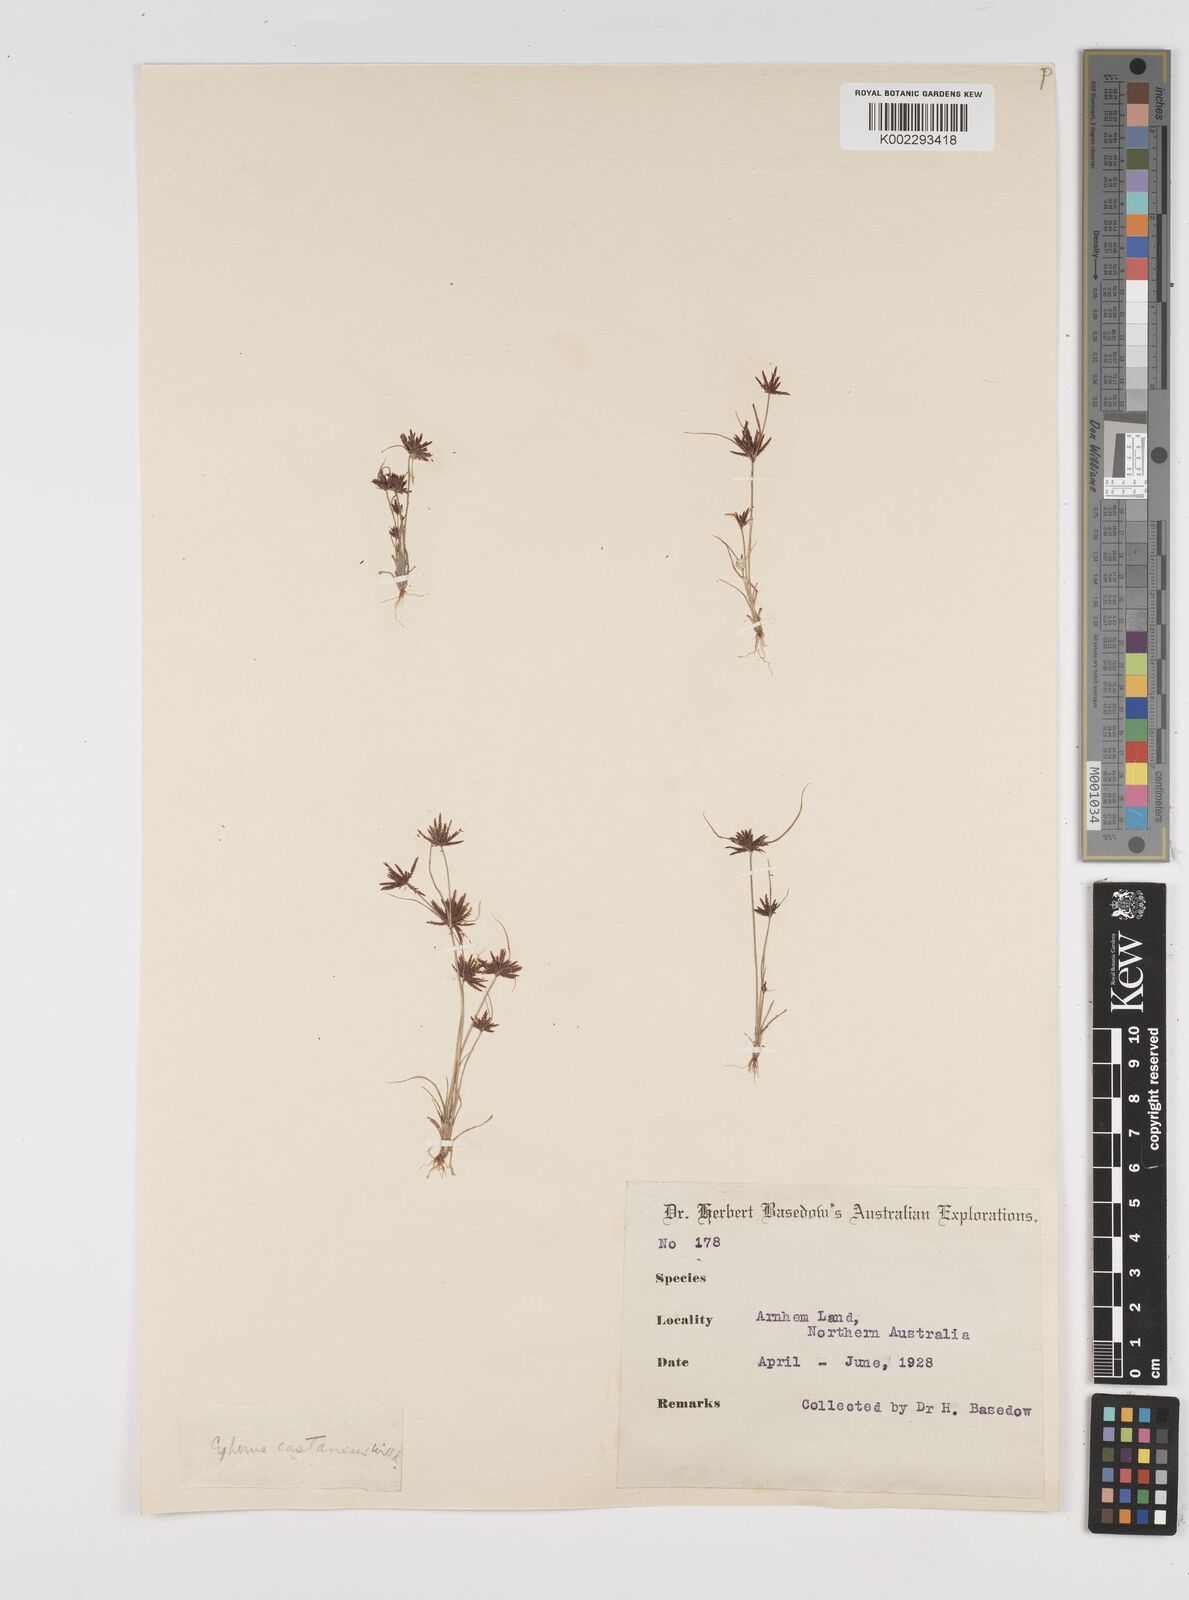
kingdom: Plantae
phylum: Tracheophyta
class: Liliopsida
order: Poales
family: Cyperaceae
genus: Cyperus
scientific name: Cyperus castaneus
